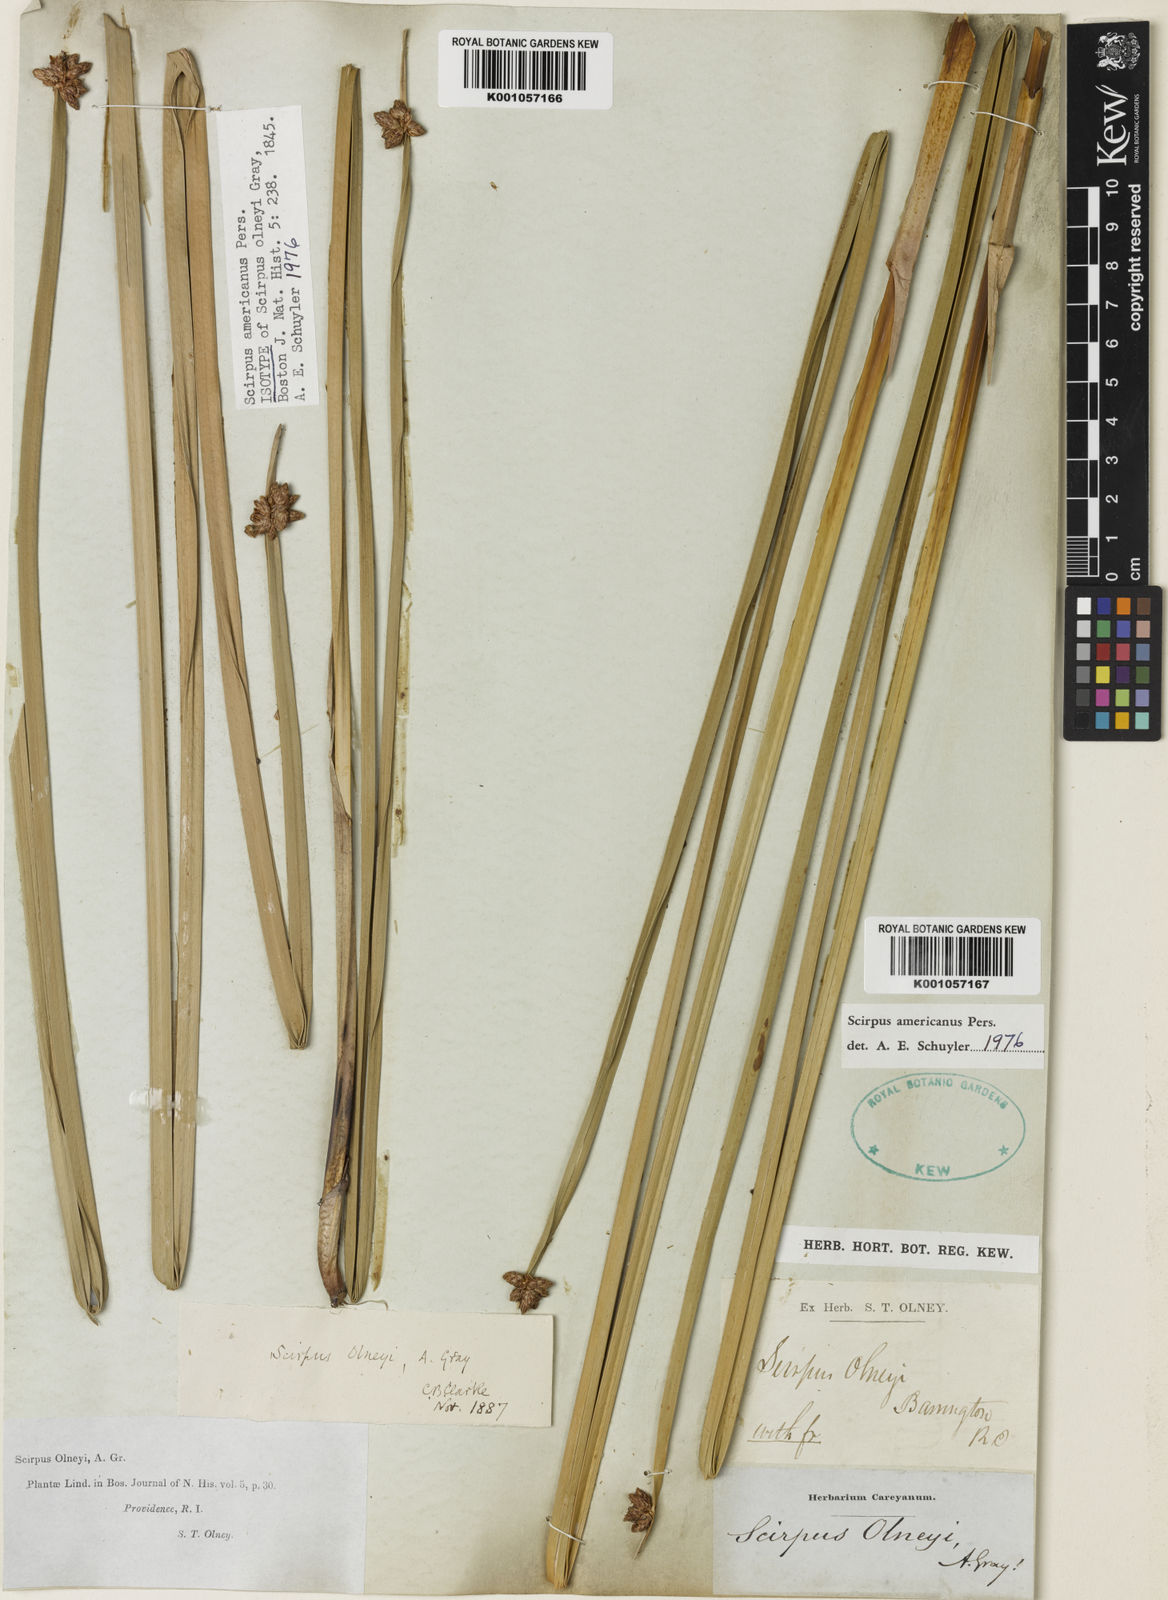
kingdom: Plantae
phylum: Tracheophyta
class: Liliopsida
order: Poales
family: Cyperaceae
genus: Schoenoplectus
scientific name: Schoenoplectus
